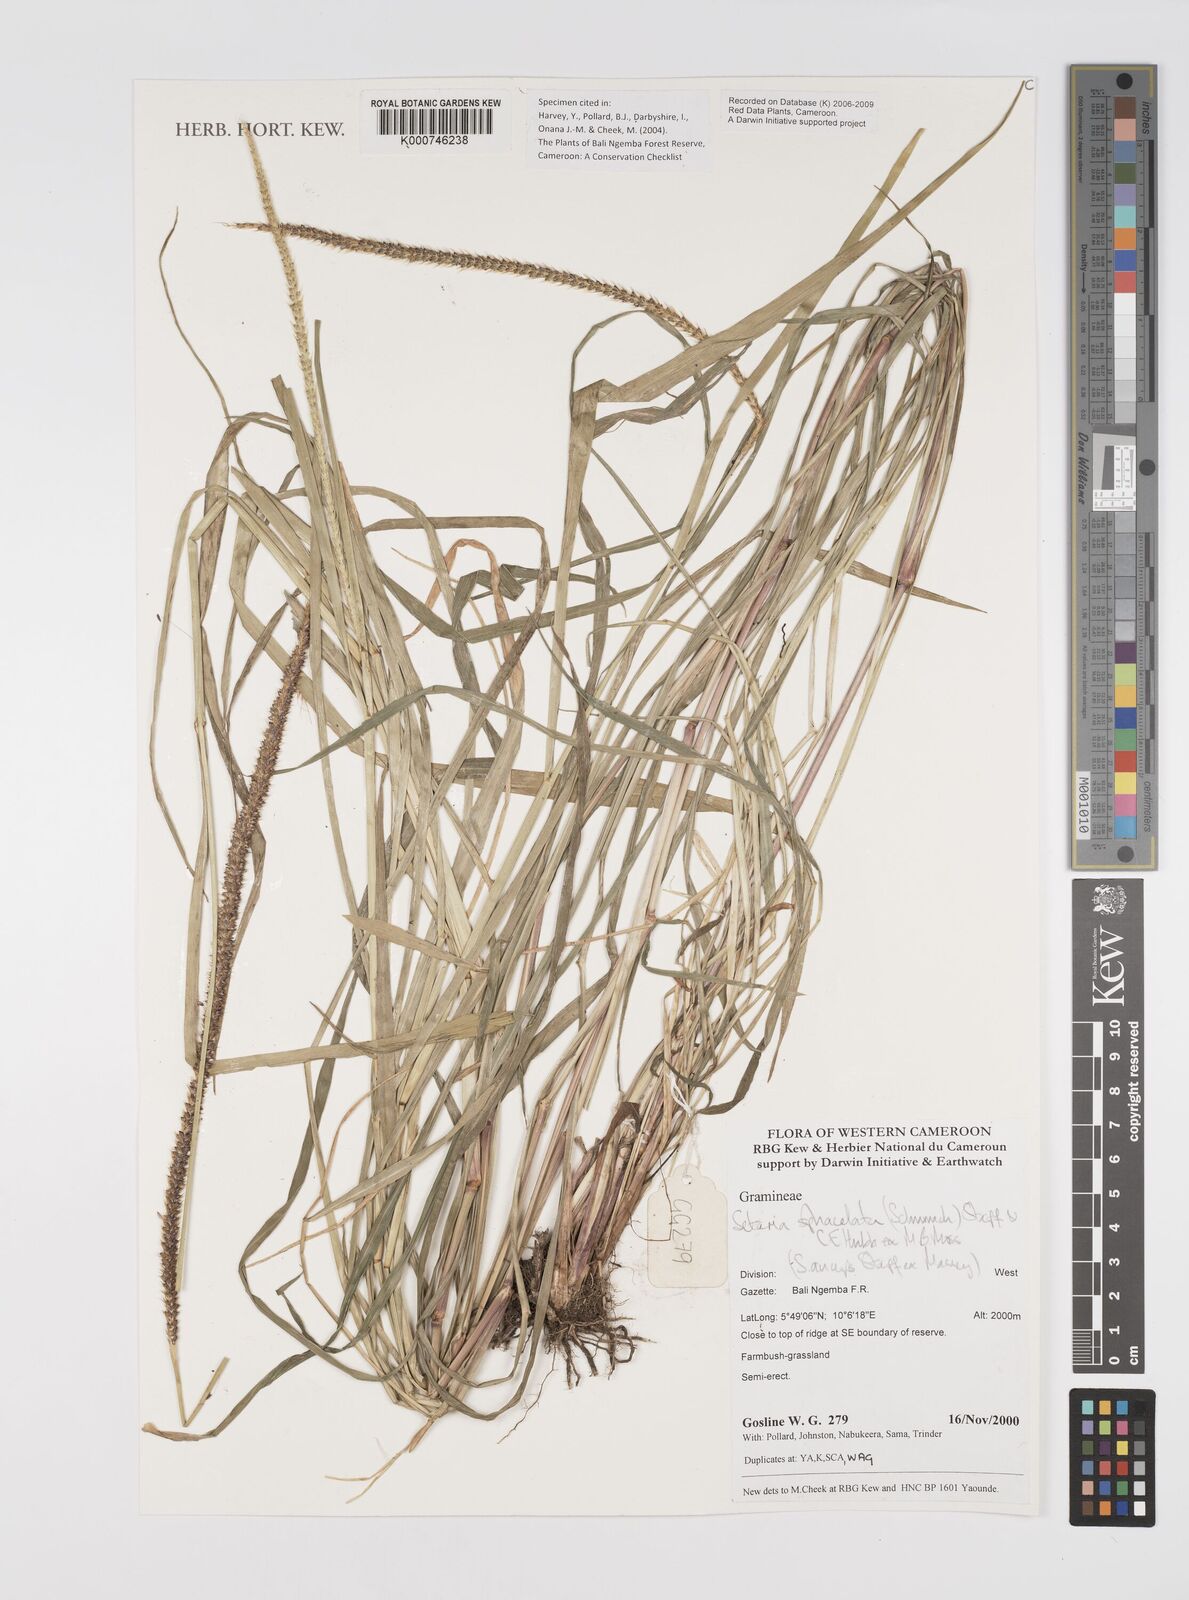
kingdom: Plantae
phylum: Tracheophyta
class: Liliopsida
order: Poales
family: Poaceae
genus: Setaria
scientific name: Setaria sphacelata
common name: African bristlegrass
